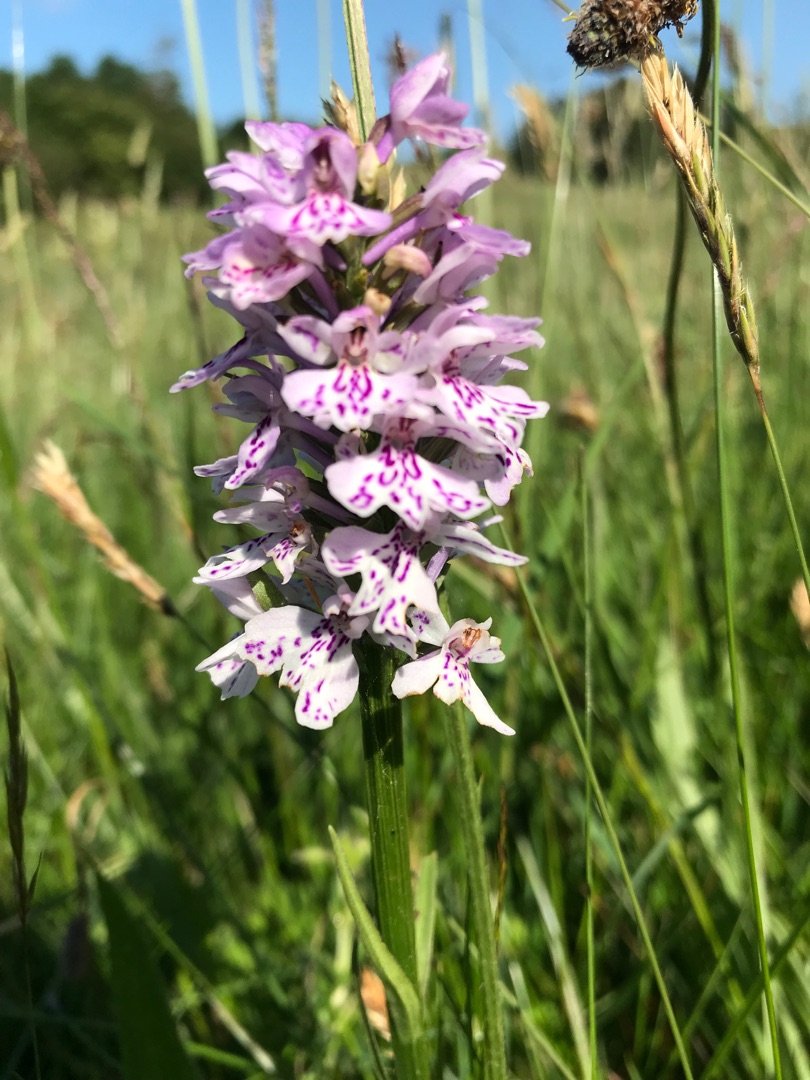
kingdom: Plantae
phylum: Tracheophyta
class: Liliopsida
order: Asparagales
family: Orchidaceae
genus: Dactylorhiza
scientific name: Dactylorhiza maculata
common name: Plettet gøgeurt
